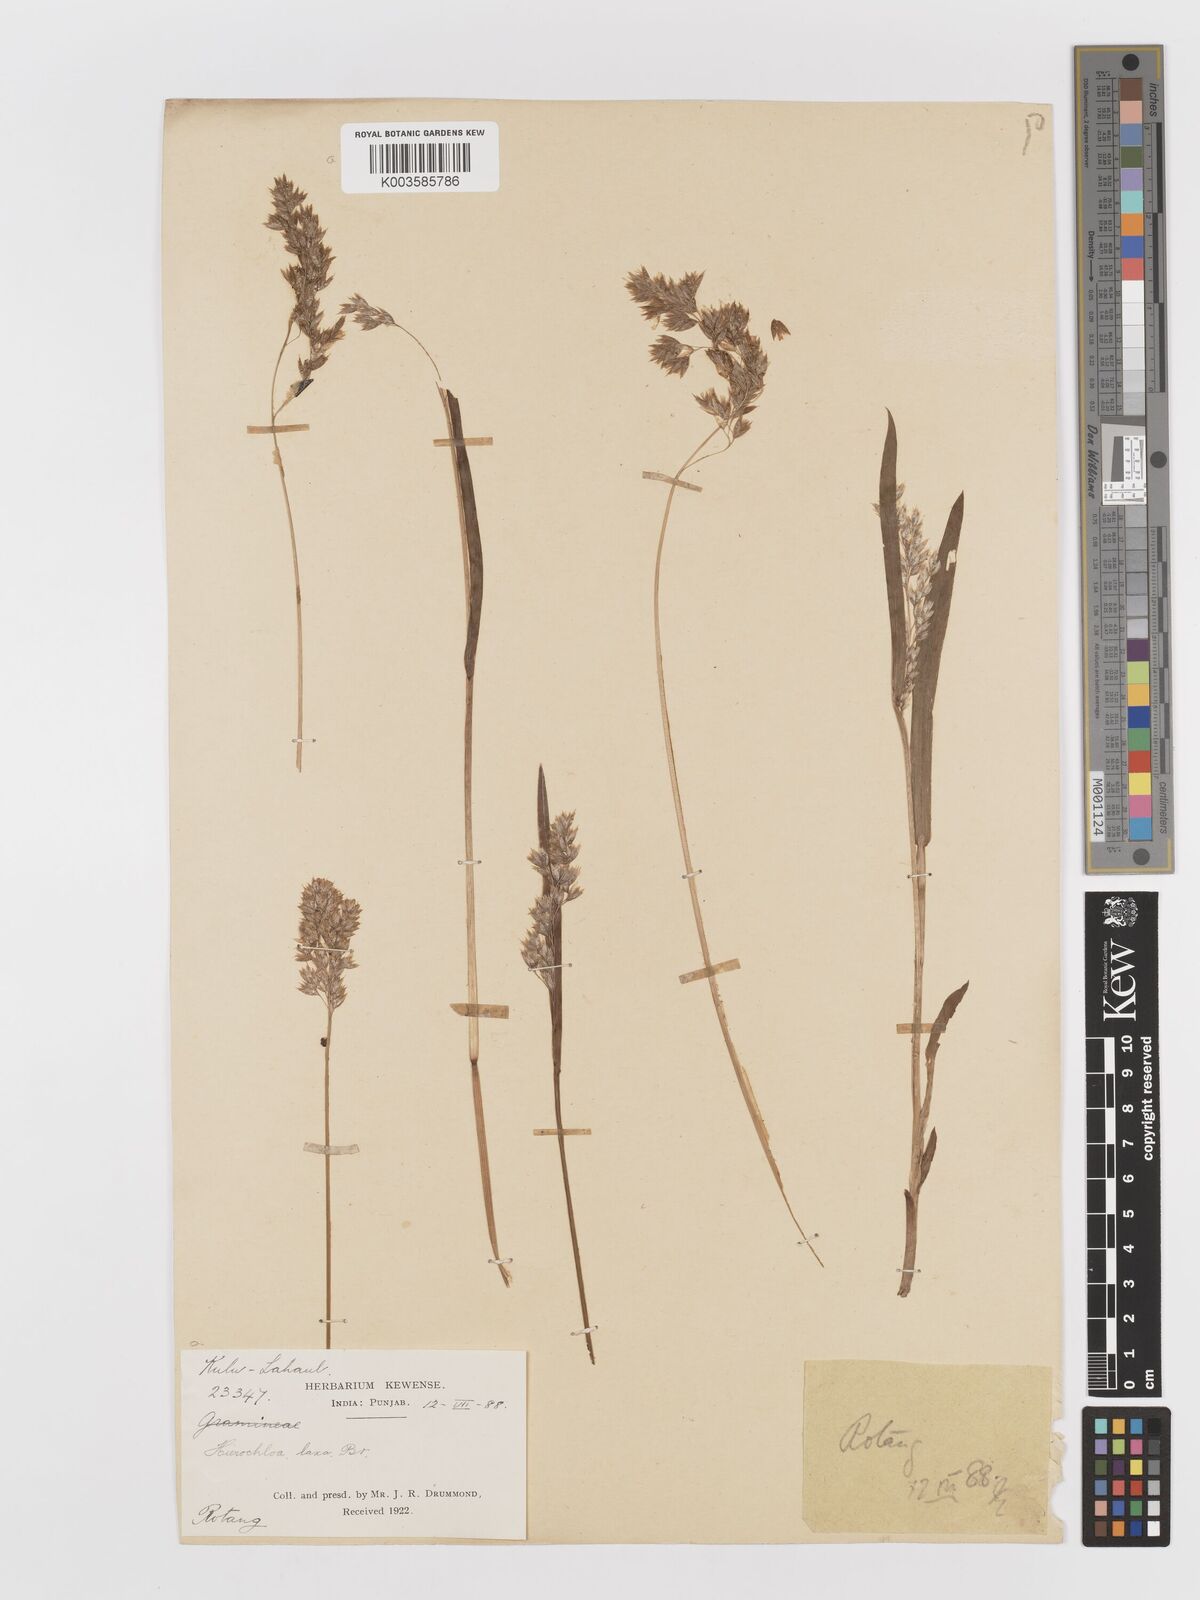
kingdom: Plantae
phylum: Tracheophyta
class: Liliopsida
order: Poales
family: Poaceae
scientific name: Poaceae
